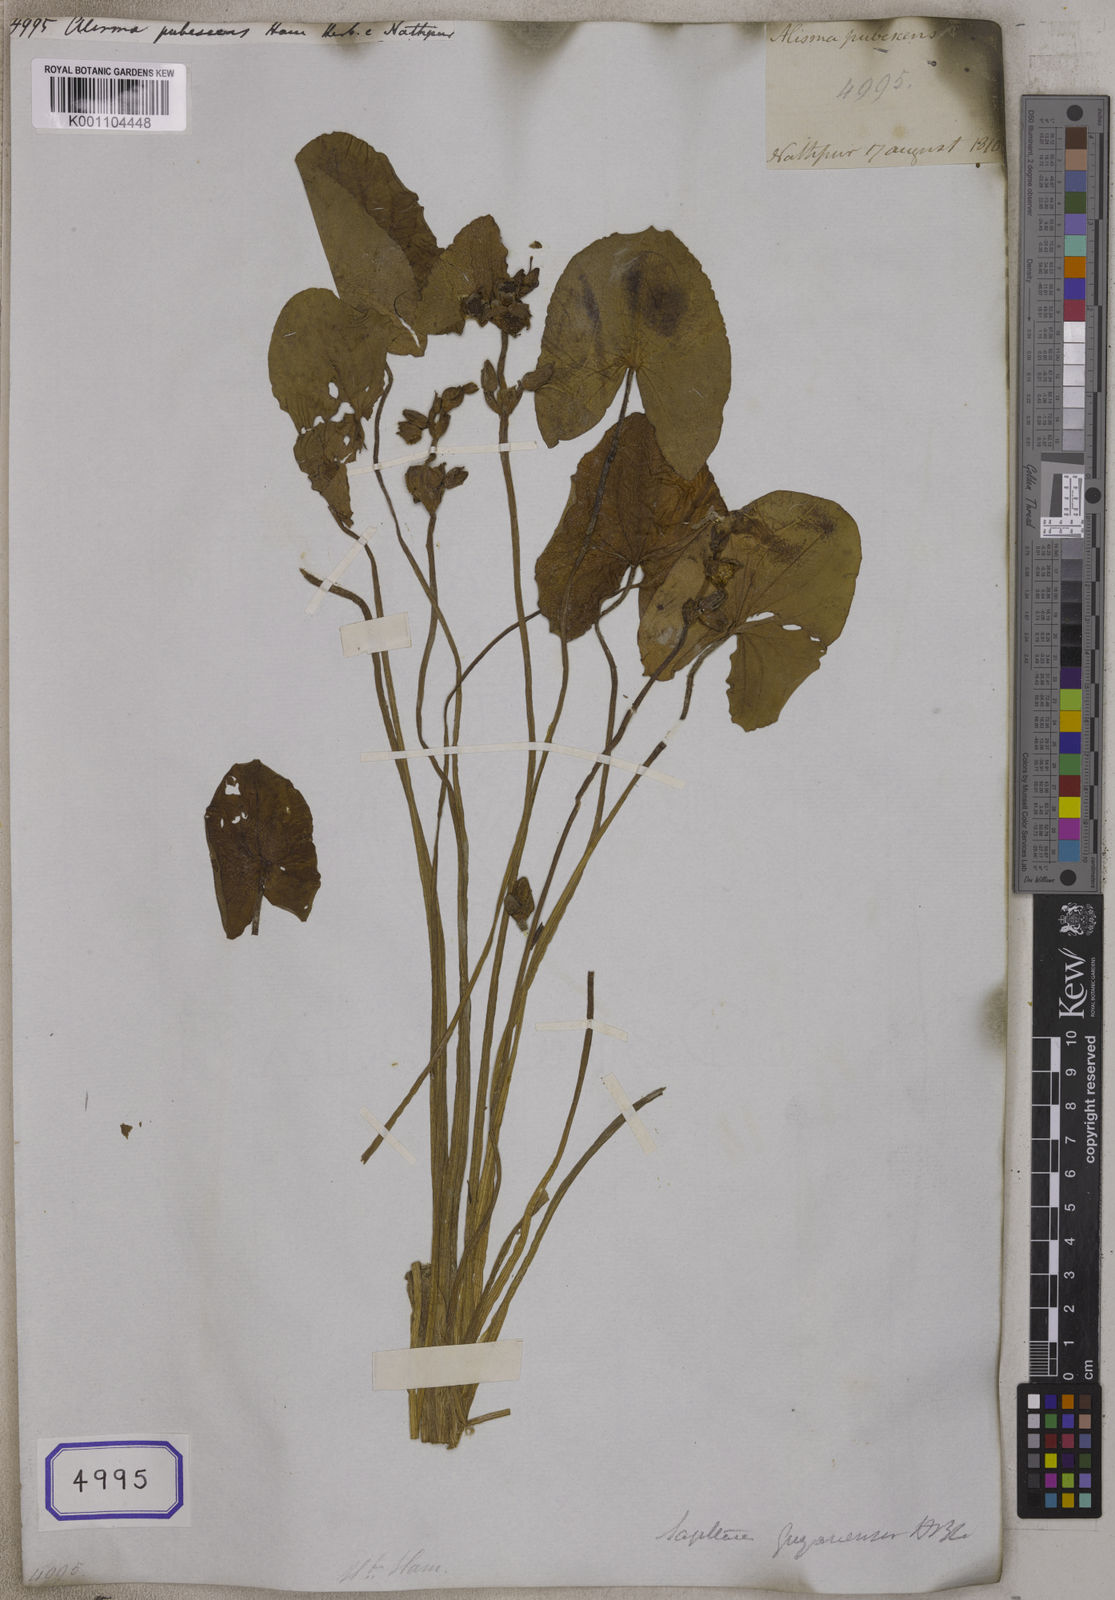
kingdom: Plantae
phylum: Tracheophyta
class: Liliopsida
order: Alismatales
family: Alismataceae
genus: Sagittaria
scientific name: Sagittaria guayanensis
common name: Guyanese arrowhead
